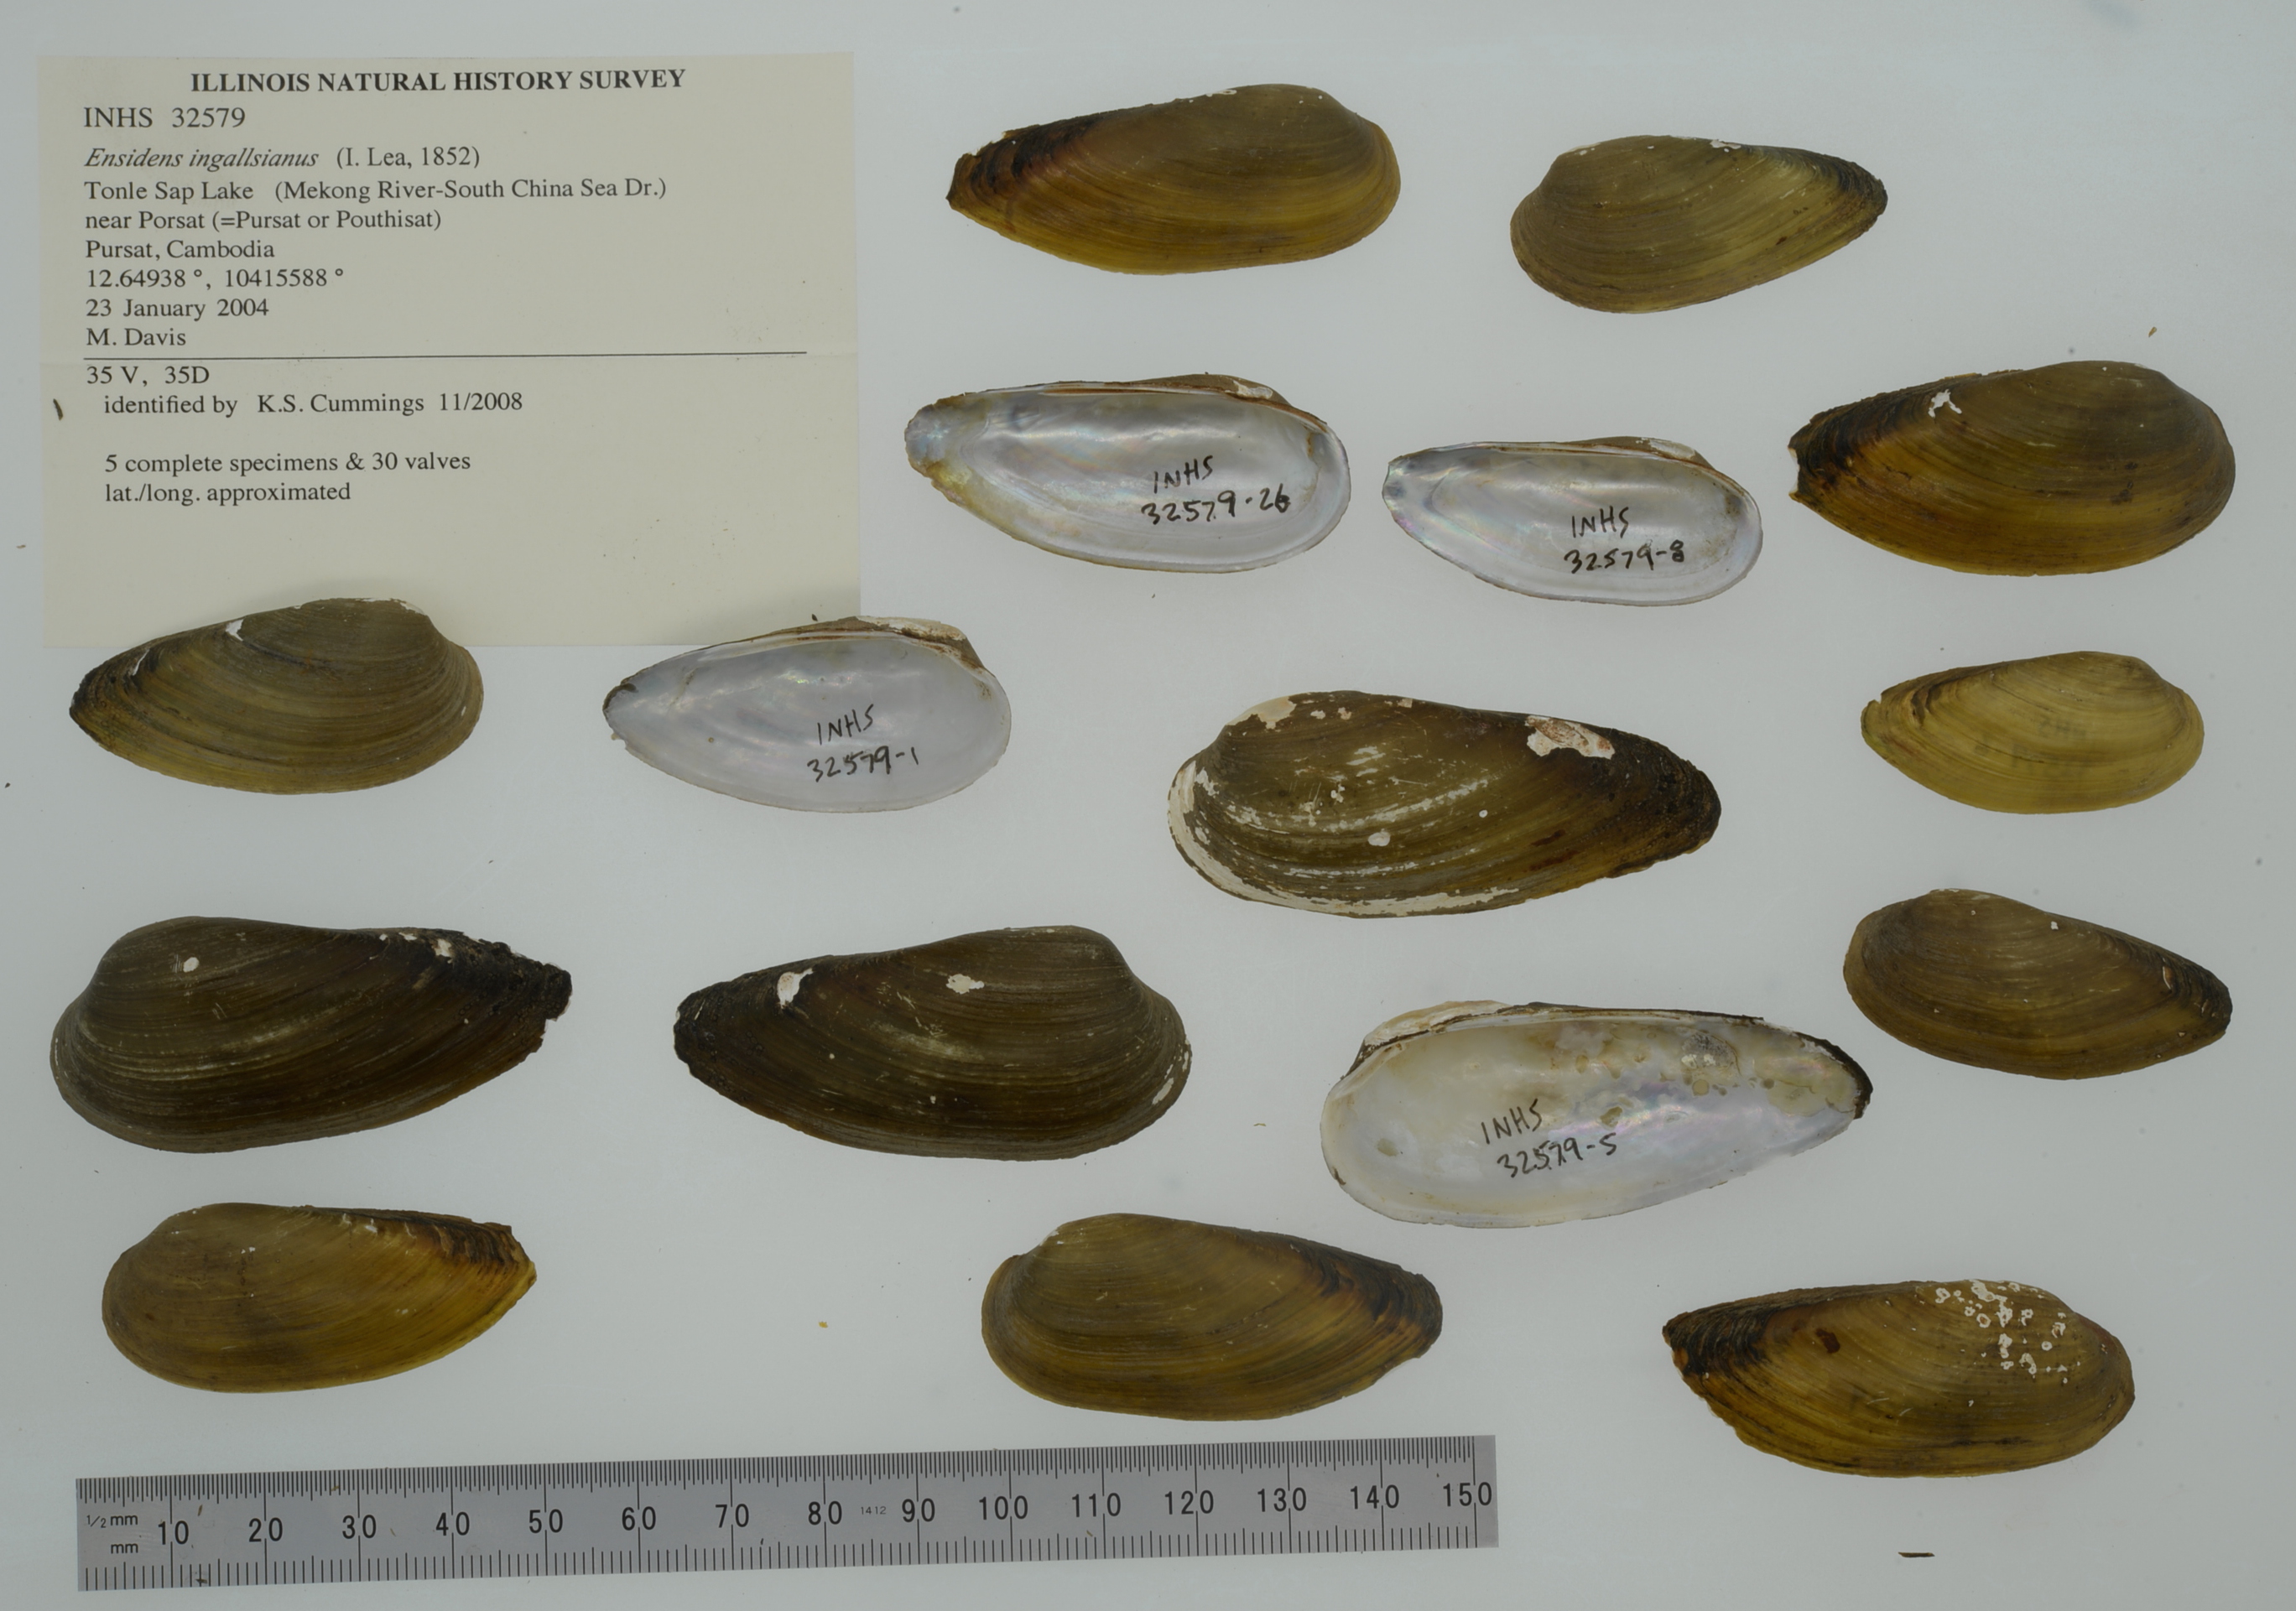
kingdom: Animalia
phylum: Mollusca
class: Bivalvia
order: Unionida
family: Unionidae
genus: Ensidens
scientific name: Ensidens ingallsianus
